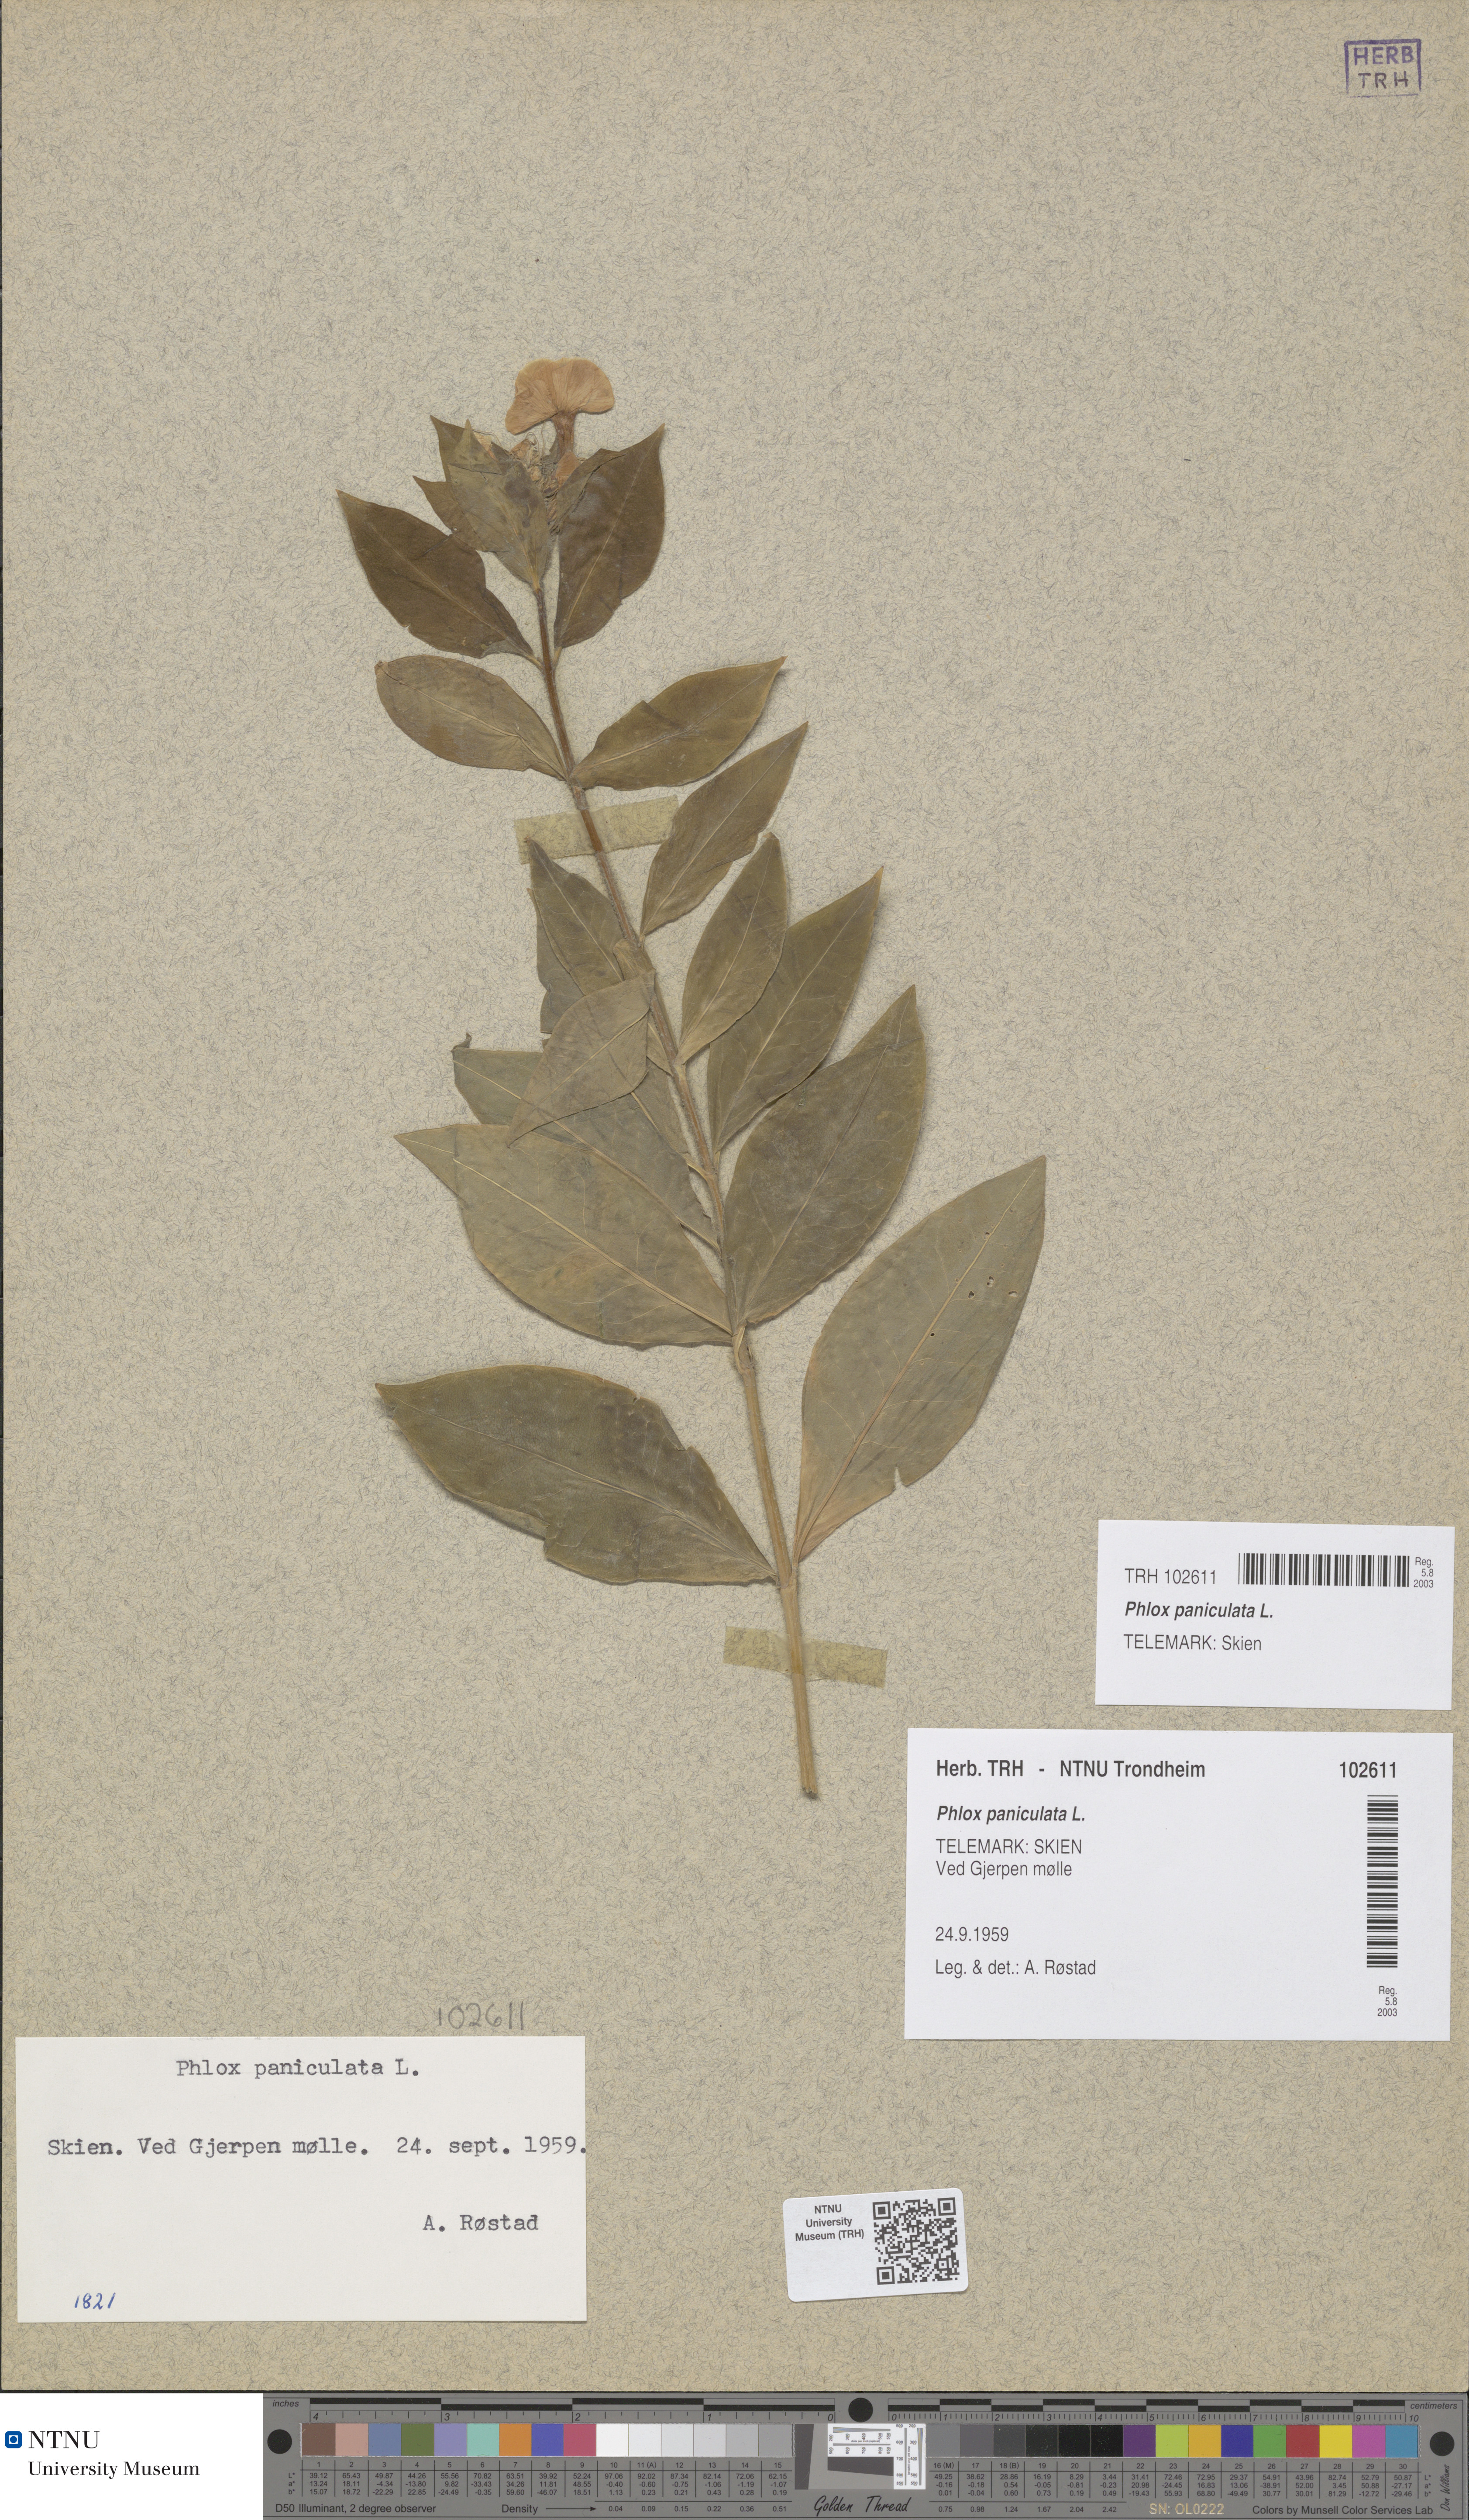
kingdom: Plantae
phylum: Tracheophyta
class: Magnoliopsida
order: Ericales
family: Polemoniaceae
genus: Phlox
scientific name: Phlox paniculata
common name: Fall phlox
